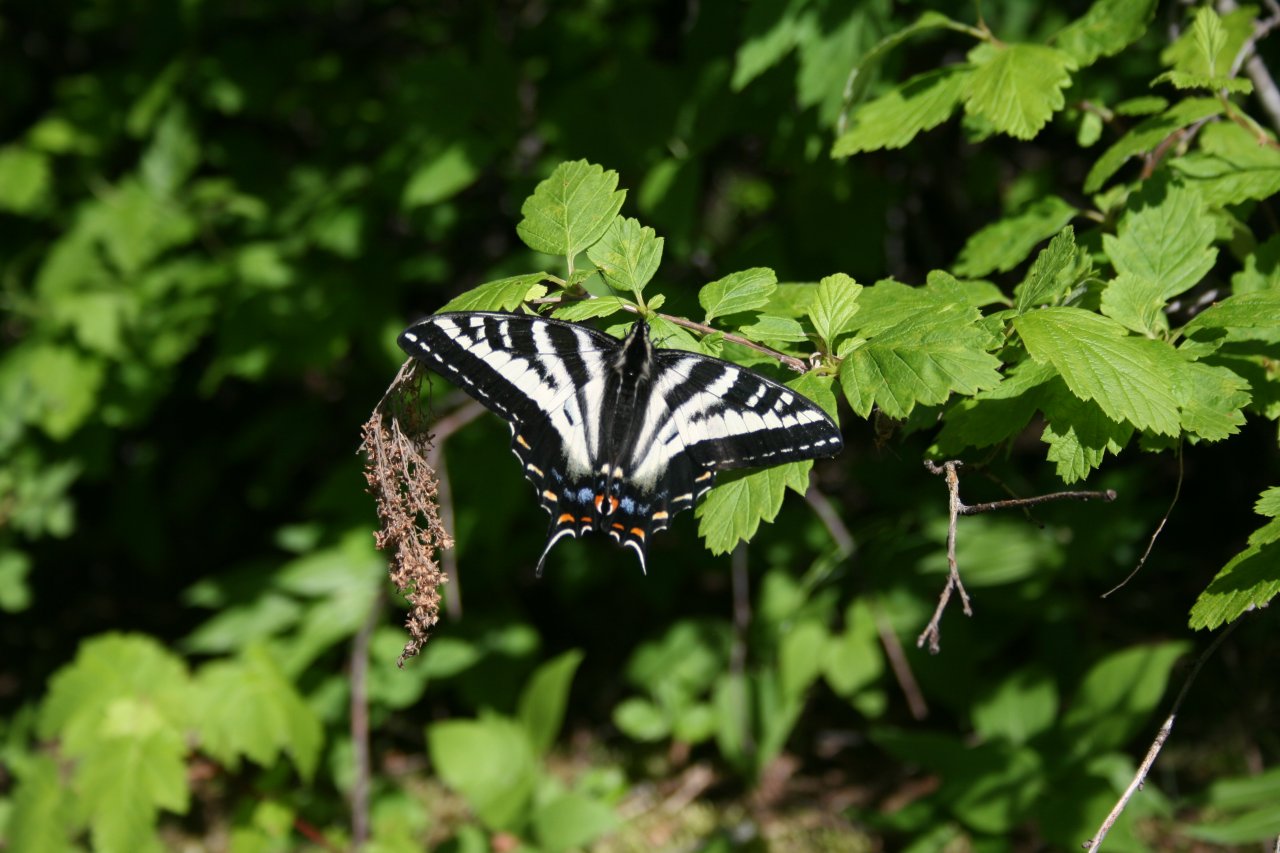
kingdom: Animalia
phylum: Arthropoda
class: Insecta
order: Lepidoptera
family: Papilionidae
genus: Pterourus
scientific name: Pterourus eurymedon
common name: Pale Swallowtail
